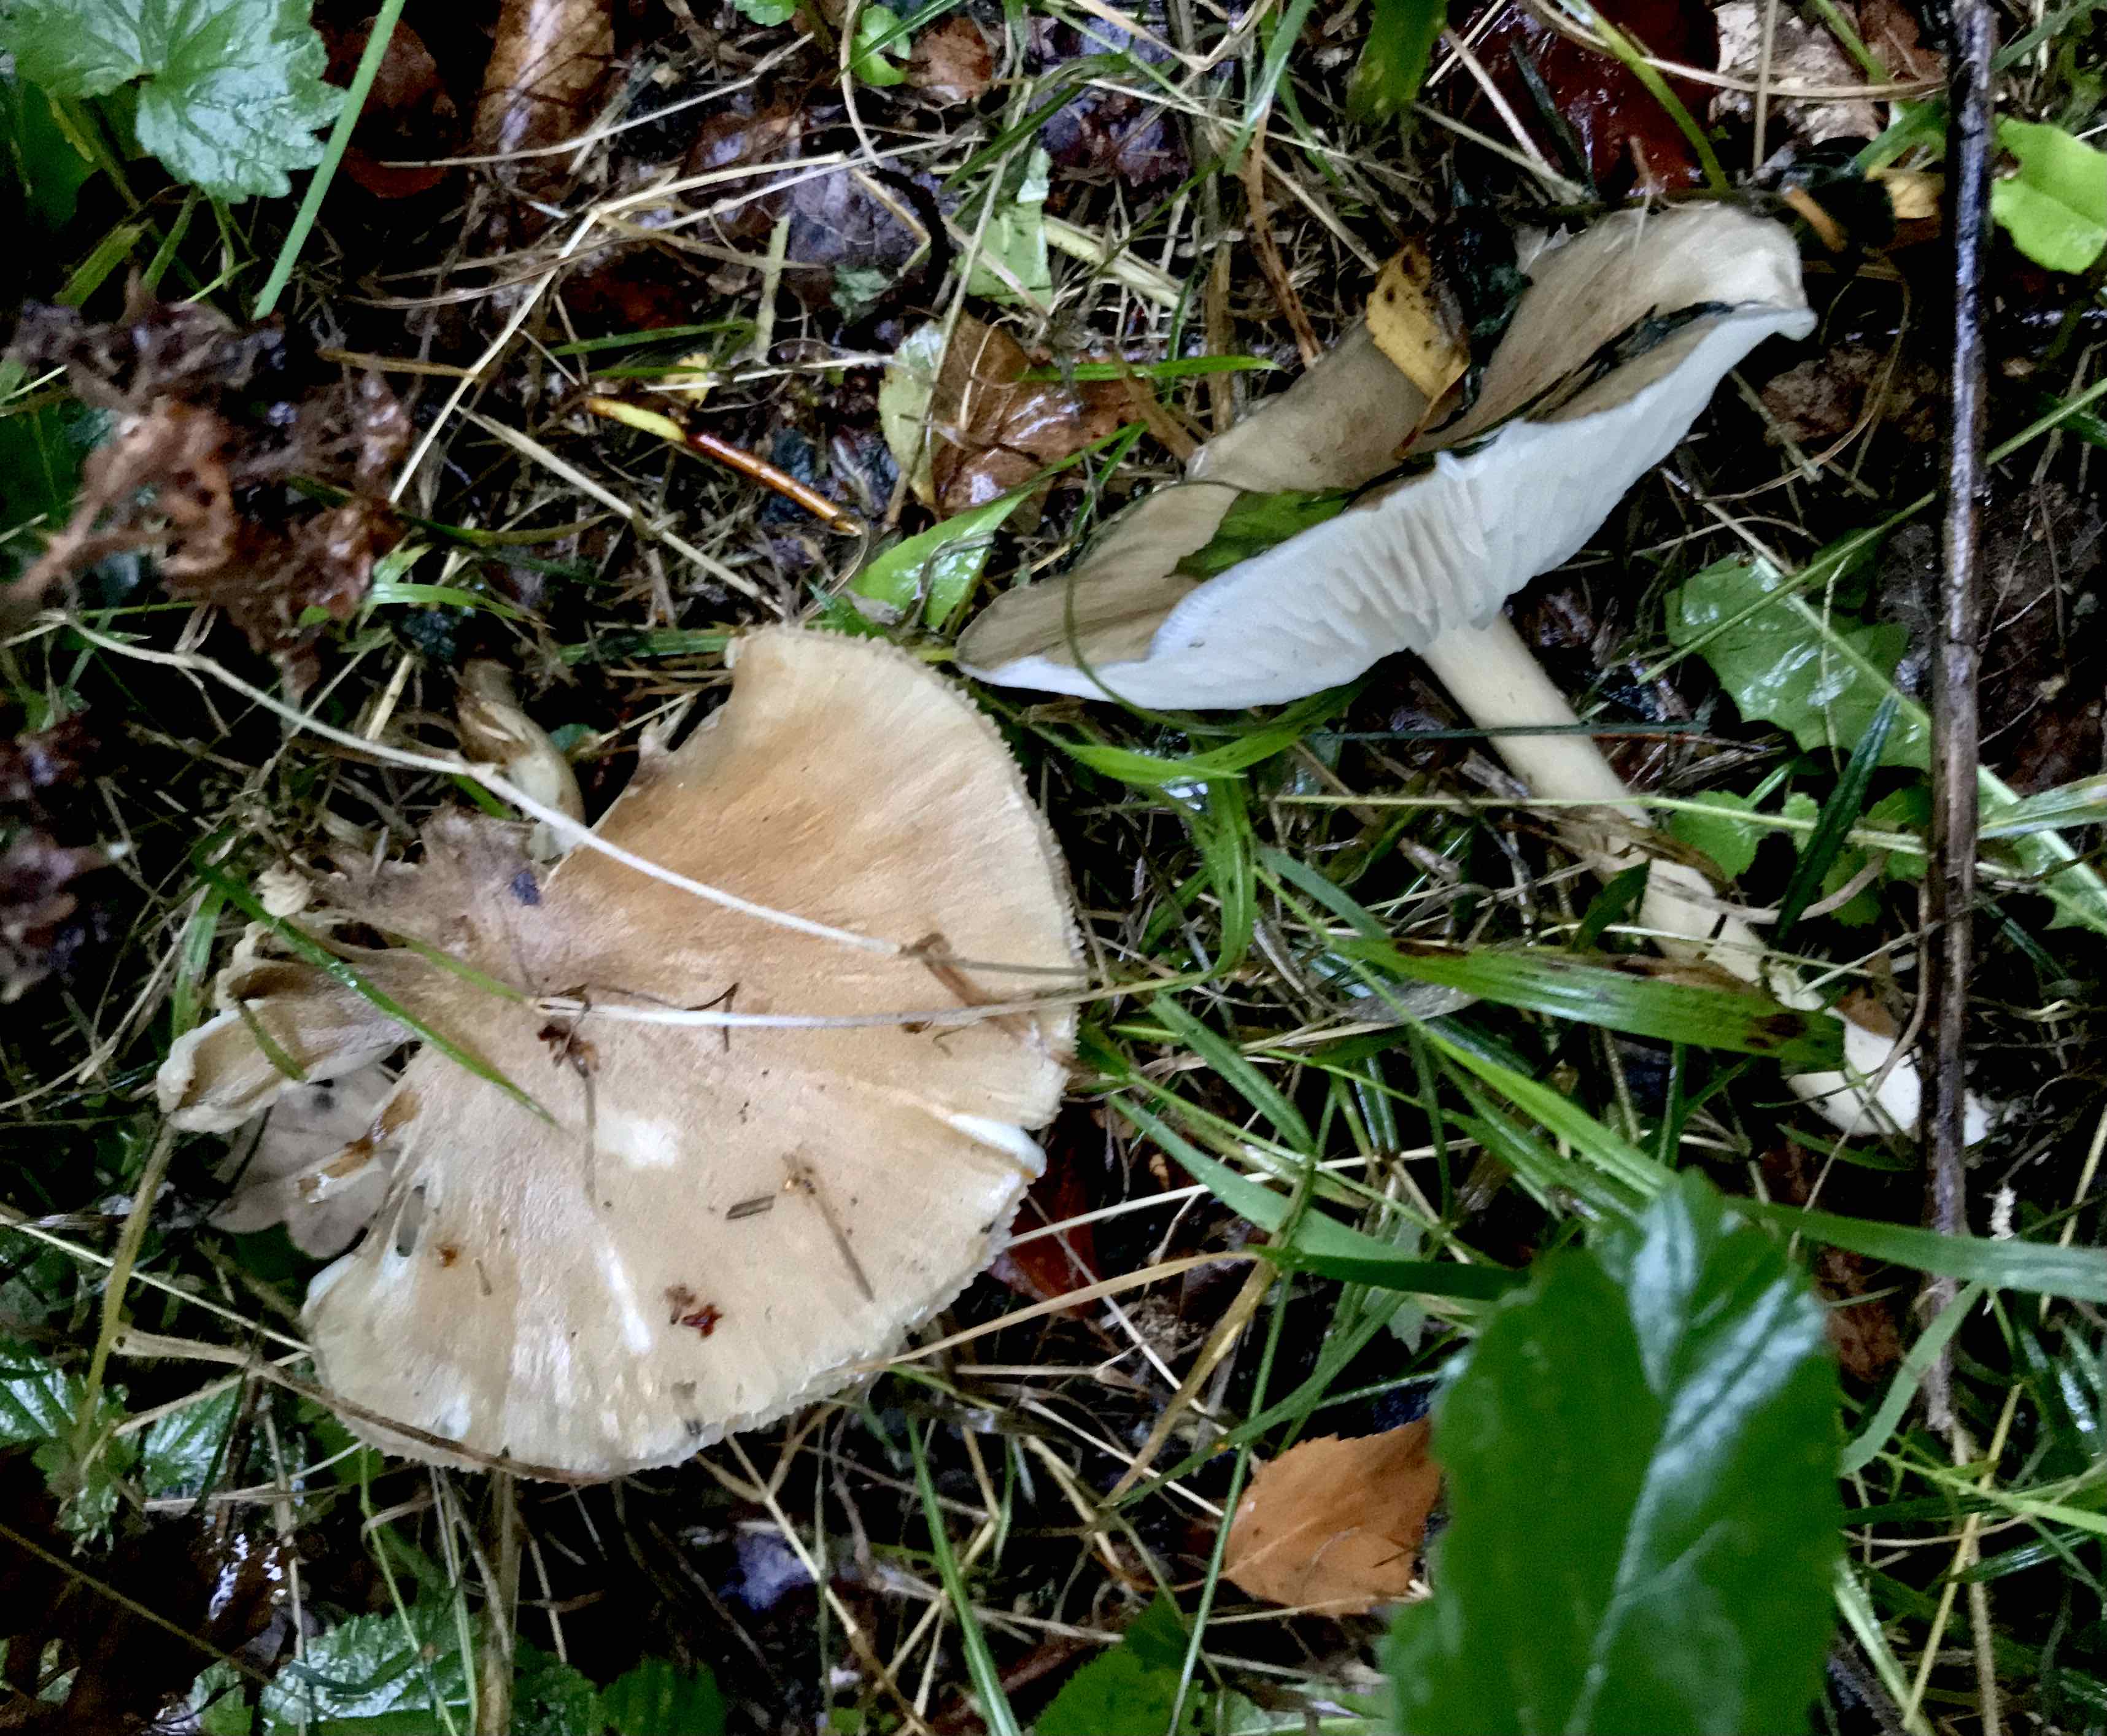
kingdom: Fungi
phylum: Basidiomycota
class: Agaricomycetes
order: Agaricales
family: Tricholomataceae
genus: Megacollybia
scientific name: Megacollybia platyphylla
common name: bredbladet væbnerhat
